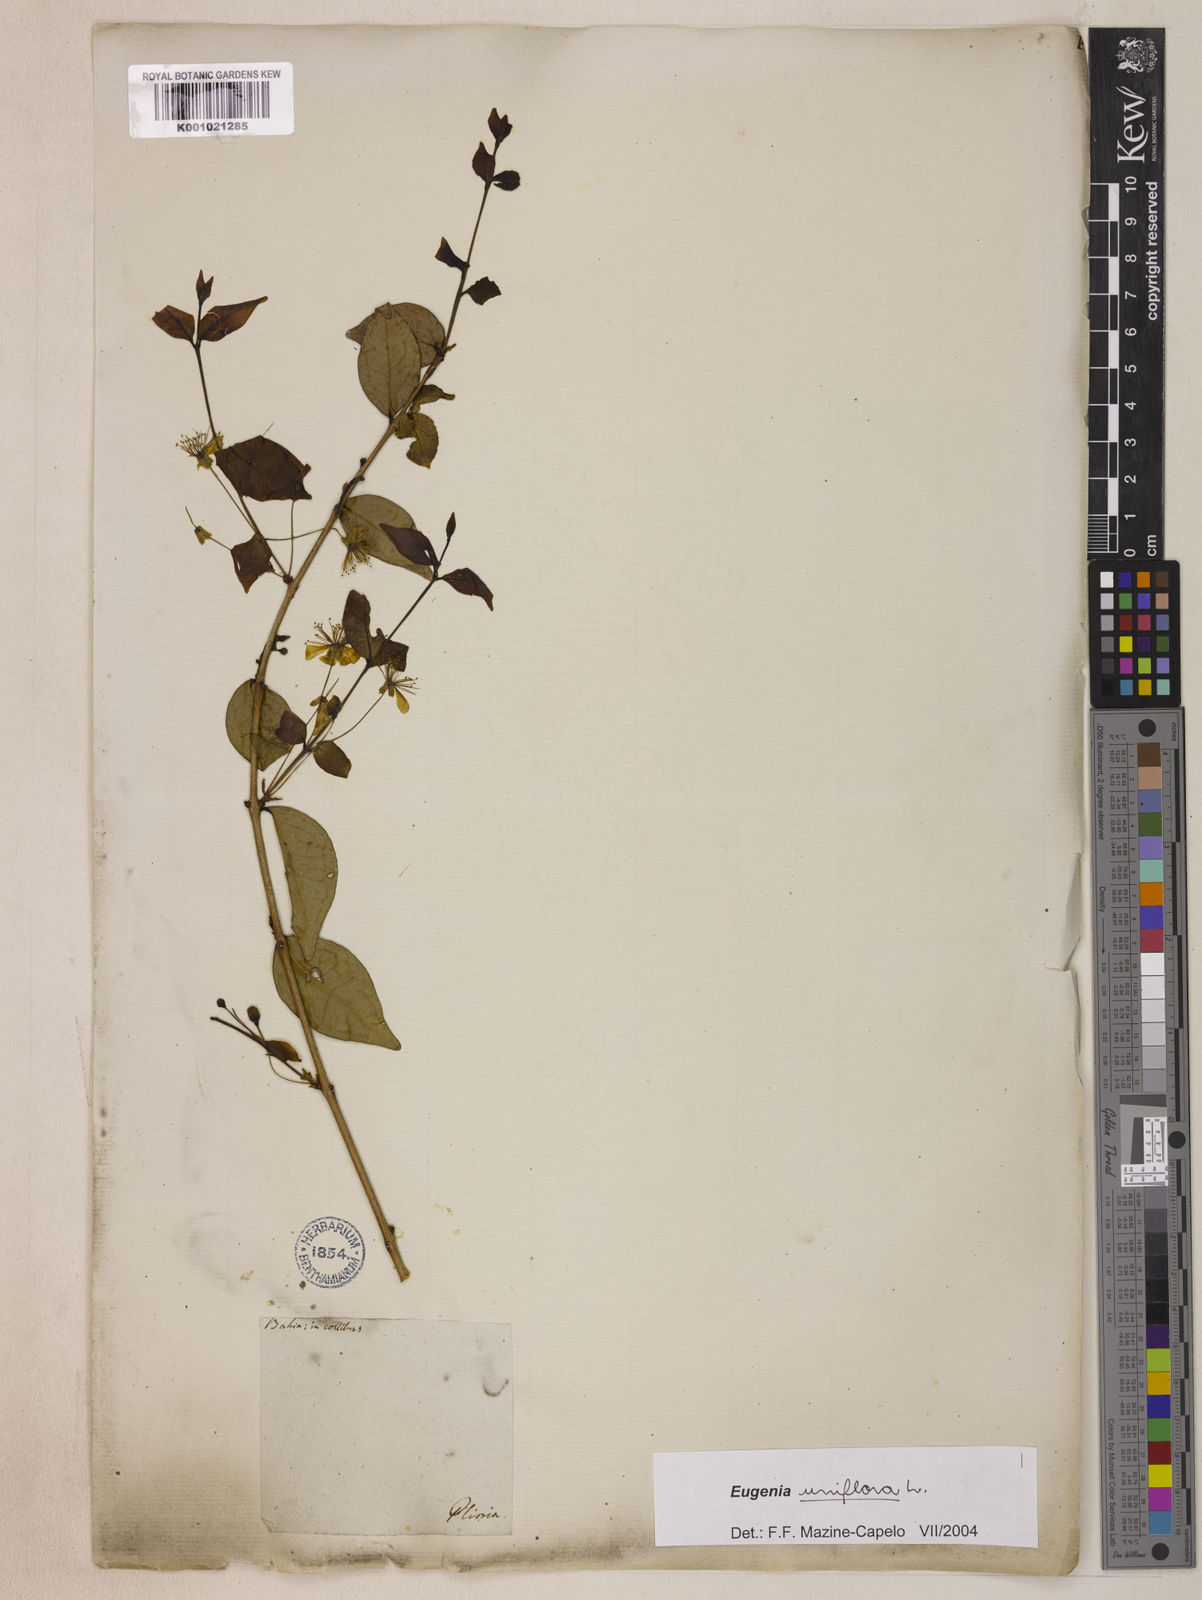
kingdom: Plantae
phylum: Tracheophyta
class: Magnoliopsida
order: Myrtales
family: Myrtaceae
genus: Eugenia
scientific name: Eugenia uniflora
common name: Surinam cherry
